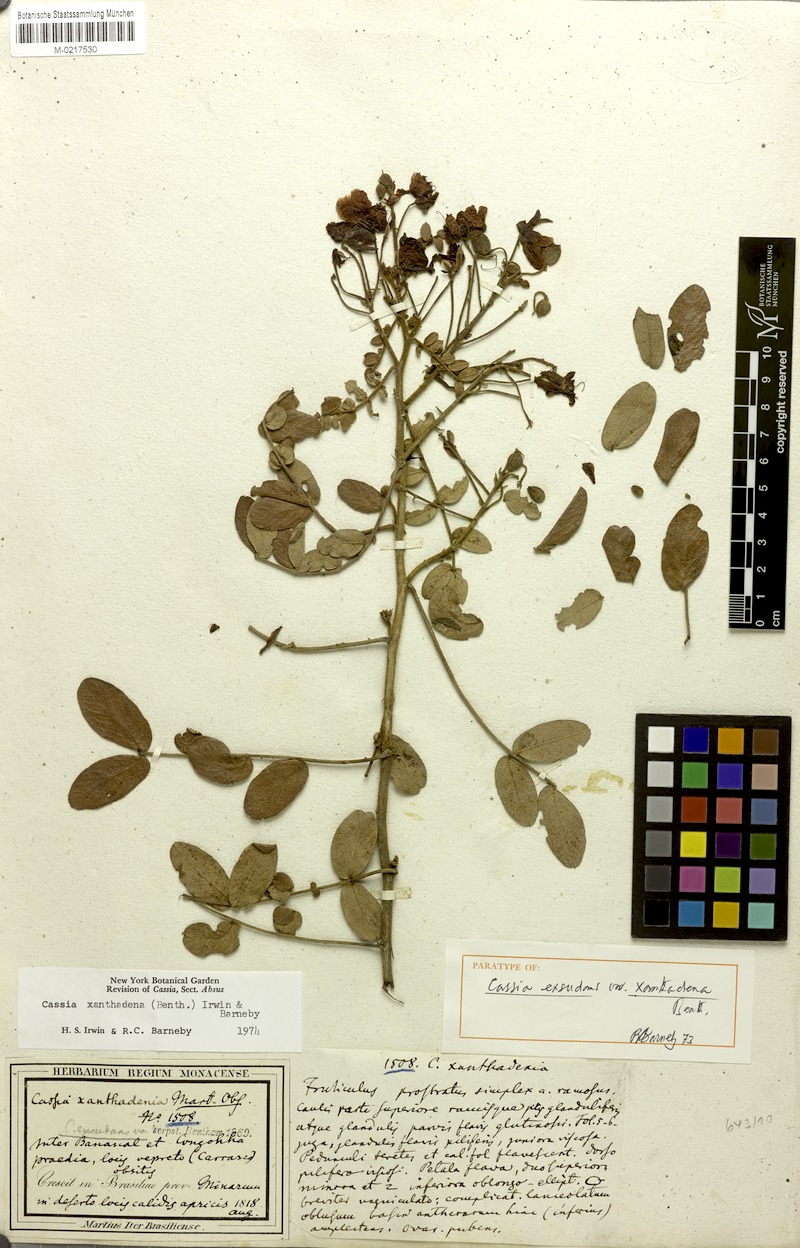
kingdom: Plantae
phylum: Tracheophyta
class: Magnoliopsida
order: Fabales
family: Fabaceae
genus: Chamaecrista
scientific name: Chamaecrista exsudans
